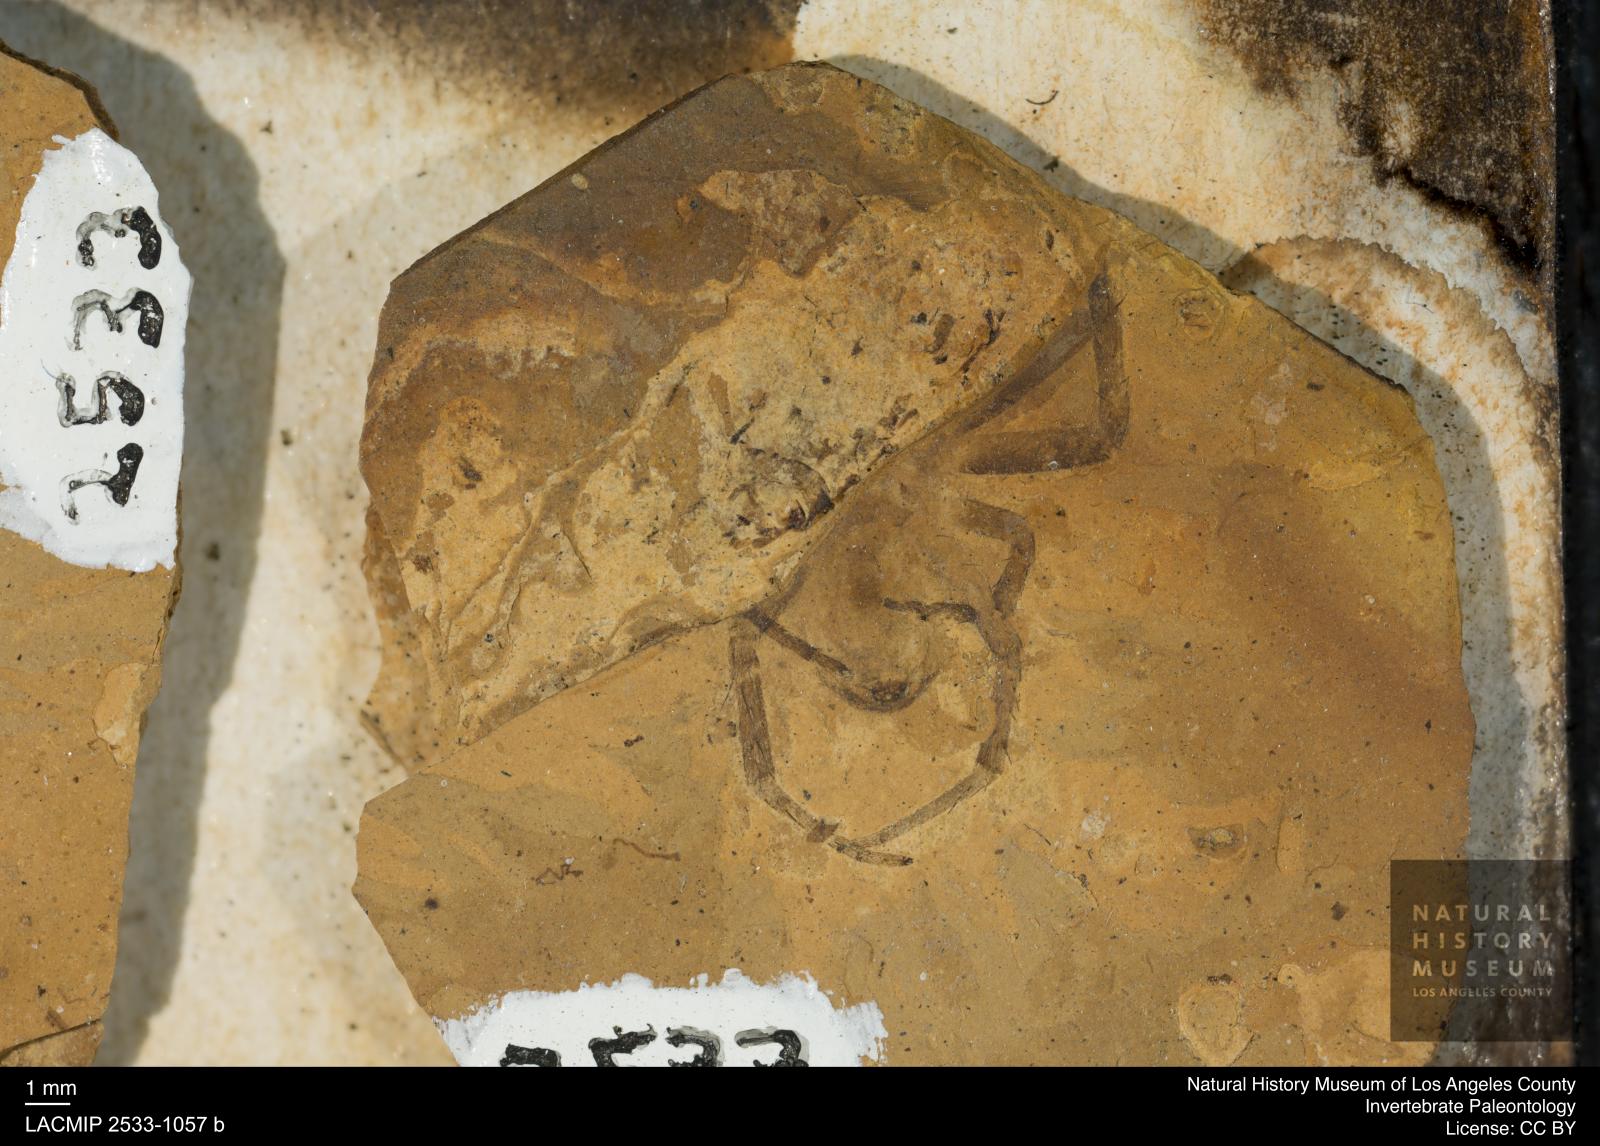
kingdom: Animalia
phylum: Arthropoda
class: Arachnida
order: Araneae
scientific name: Araneae
